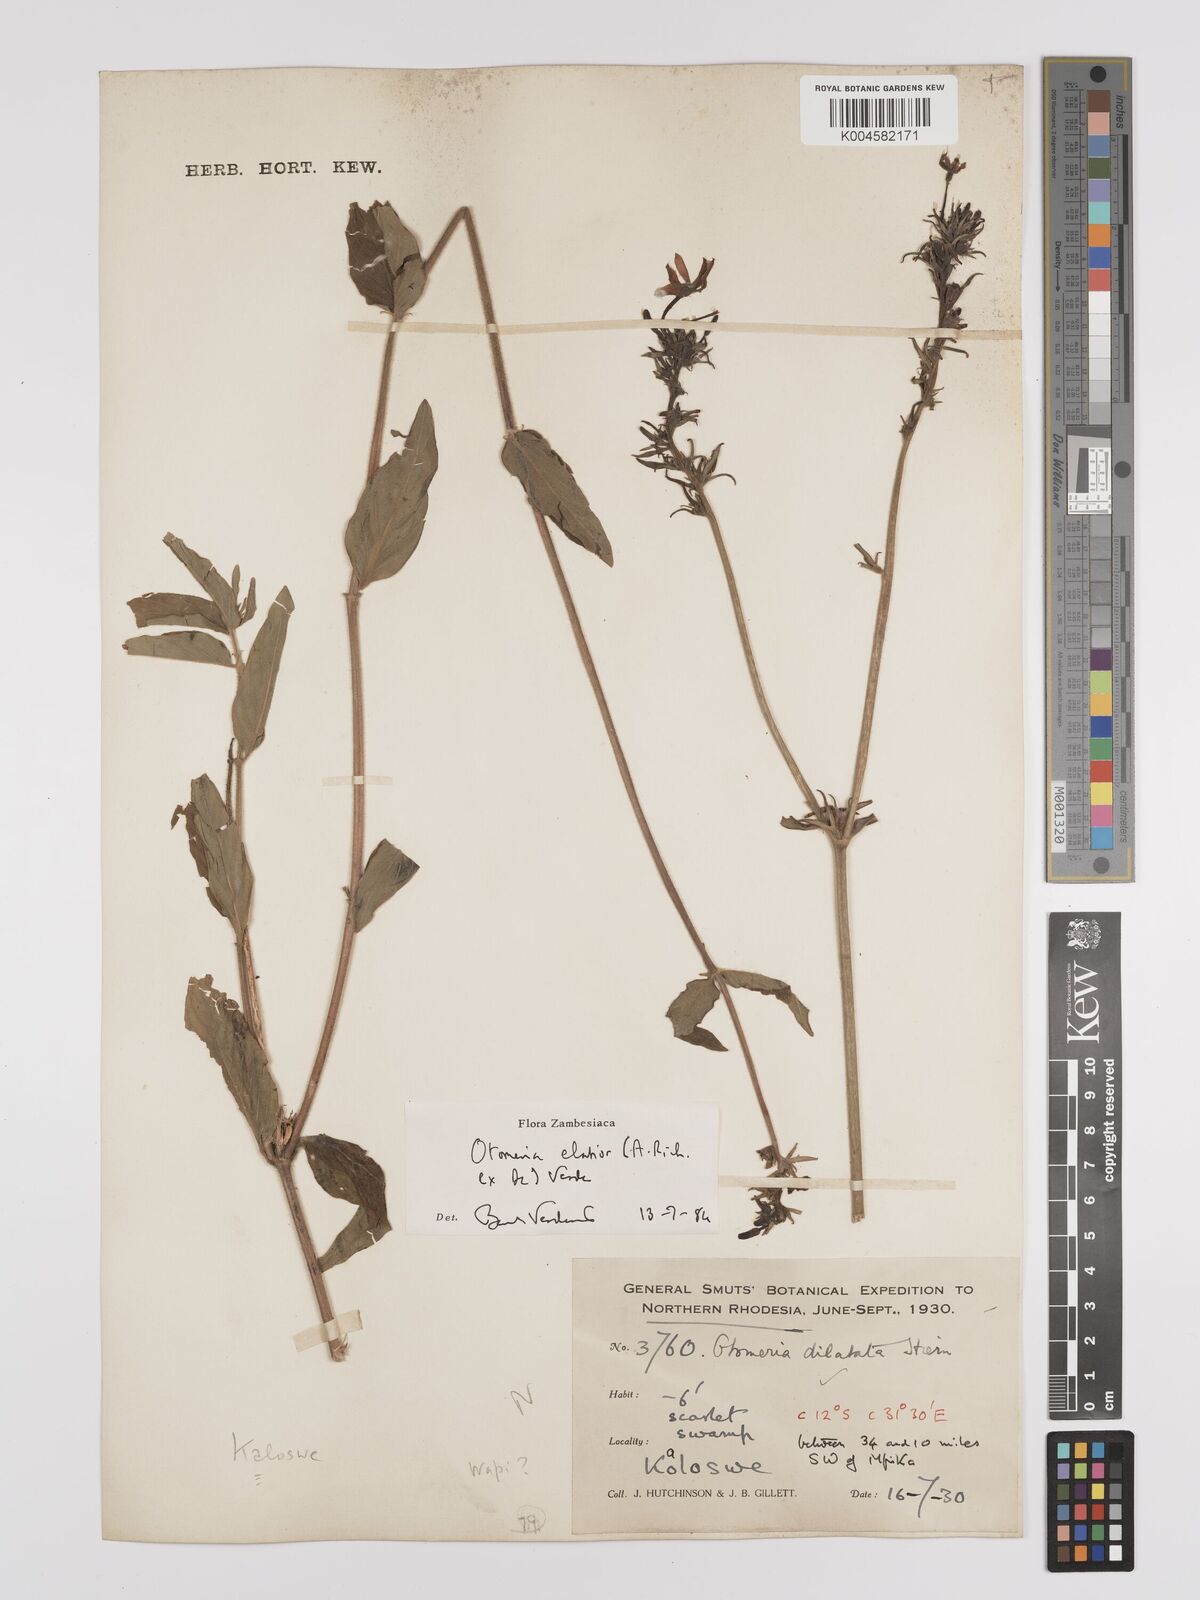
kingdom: Plantae
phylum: Tracheophyta
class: Magnoliopsida
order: Gentianales
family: Rubiaceae
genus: Otomeria
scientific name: Otomeria elatior
